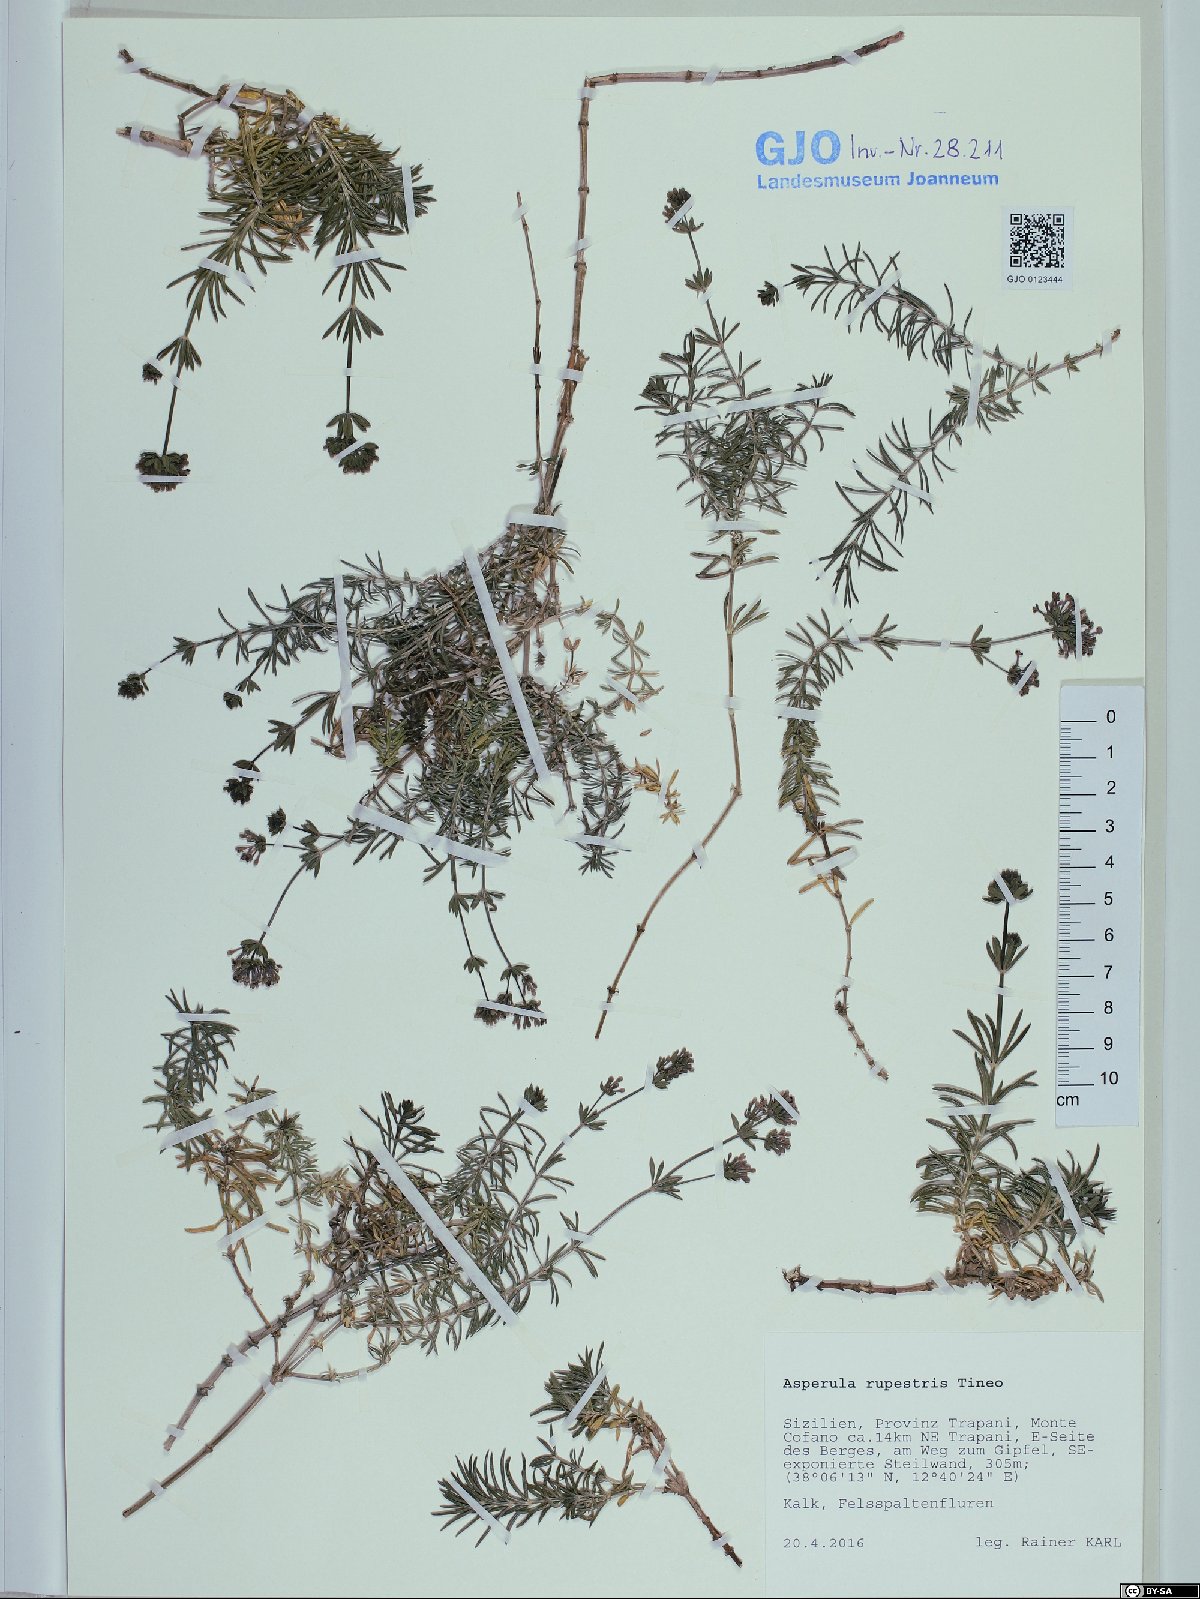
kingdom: Plantae
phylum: Tracheophyta
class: Magnoliopsida
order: Gentianales
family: Rubiaceae
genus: Hexaphylla
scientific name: Hexaphylla rupestris
